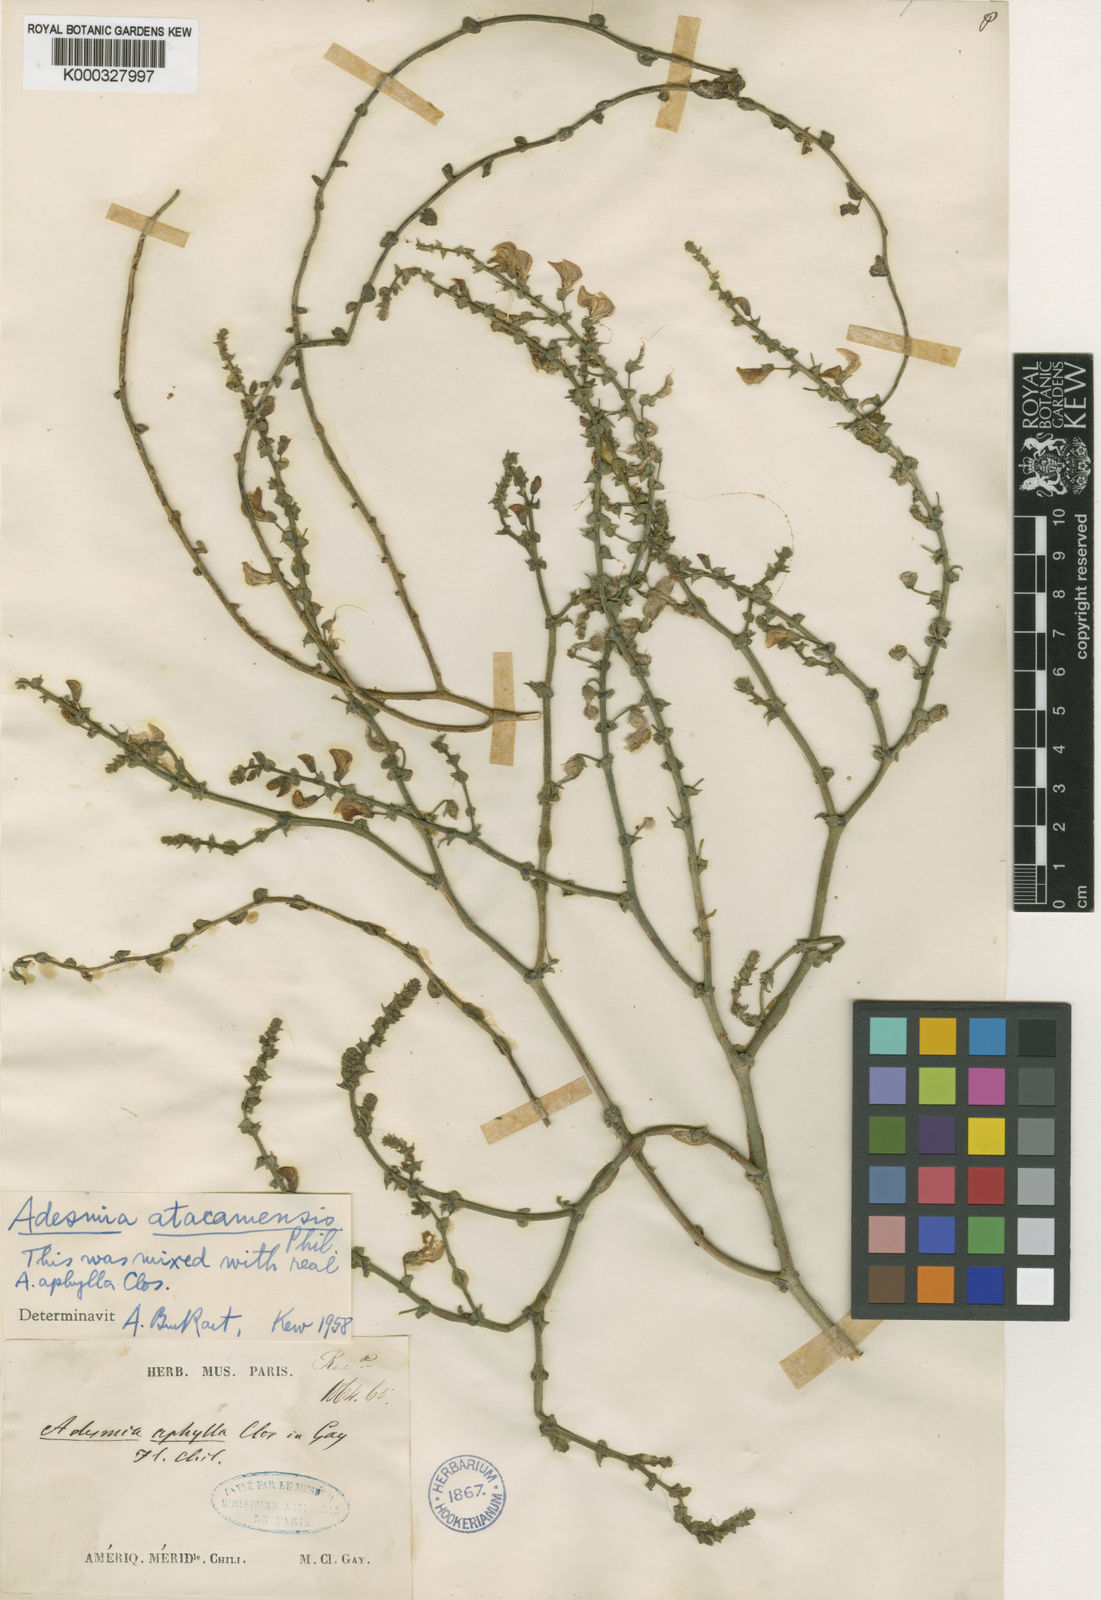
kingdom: Plantae
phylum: Tracheophyta
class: Magnoliopsida
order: Fabales
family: Fabaceae
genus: Adesmia
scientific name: Adesmia aphylla
